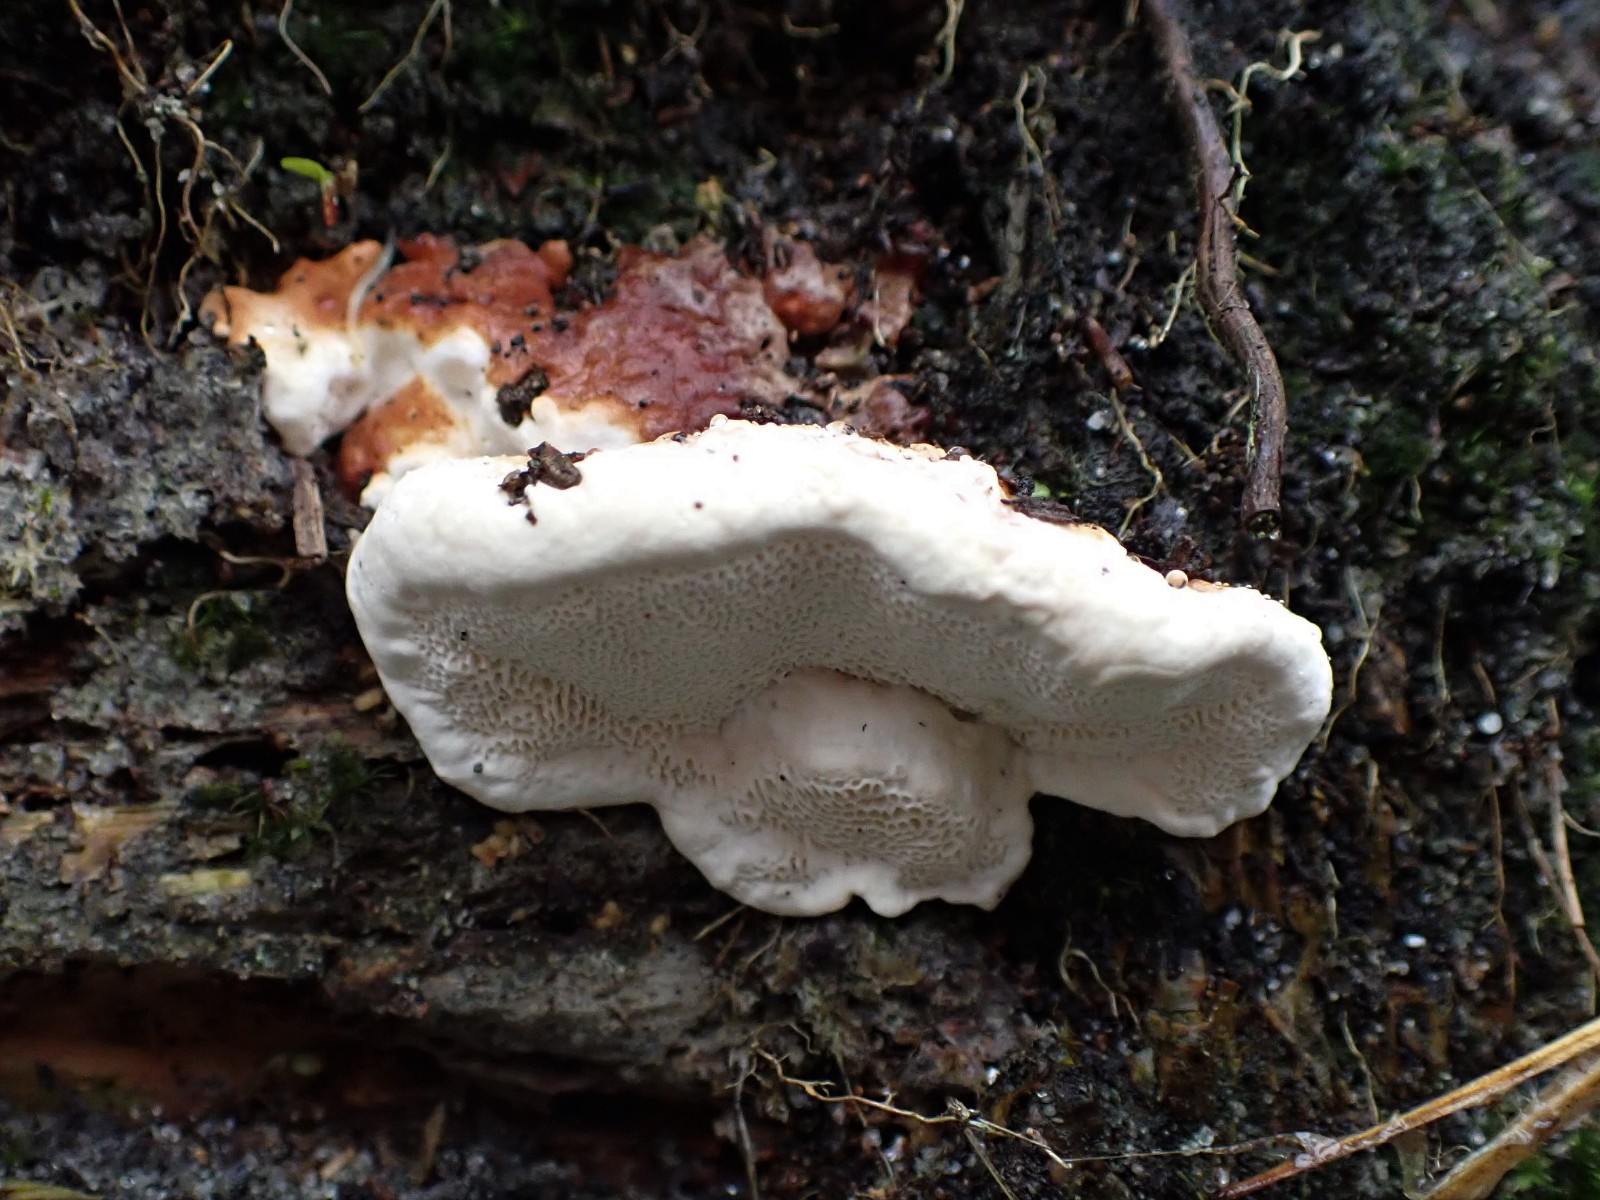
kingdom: Fungi
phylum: Basidiomycota
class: Agaricomycetes
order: Russulales
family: Bondarzewiaceae
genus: Heterobasidion
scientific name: Heterobasidion annosum
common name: almindelig rodfordærver
